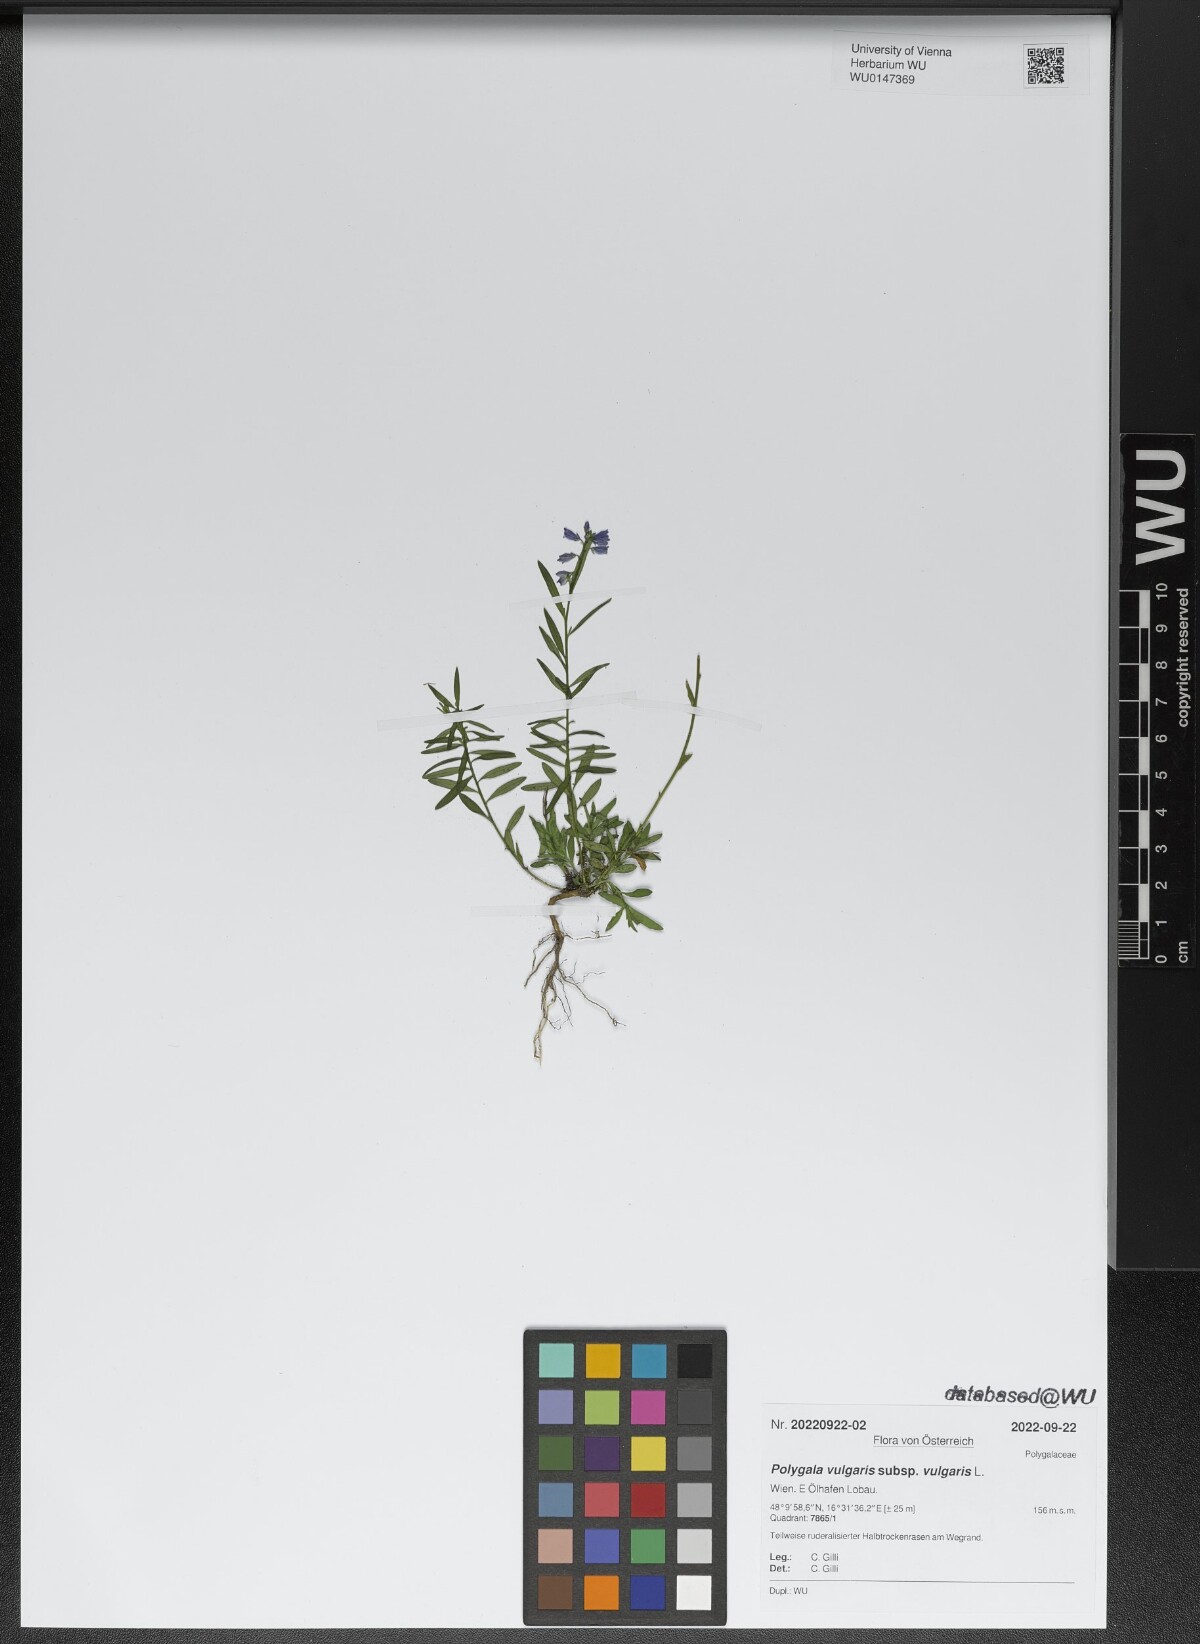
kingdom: Plantae
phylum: Tracheophyta
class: Magnoliopsida
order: Fabales
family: Polygalaceae
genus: Polygala
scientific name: Polygala vulgaris
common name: Common milkwort
